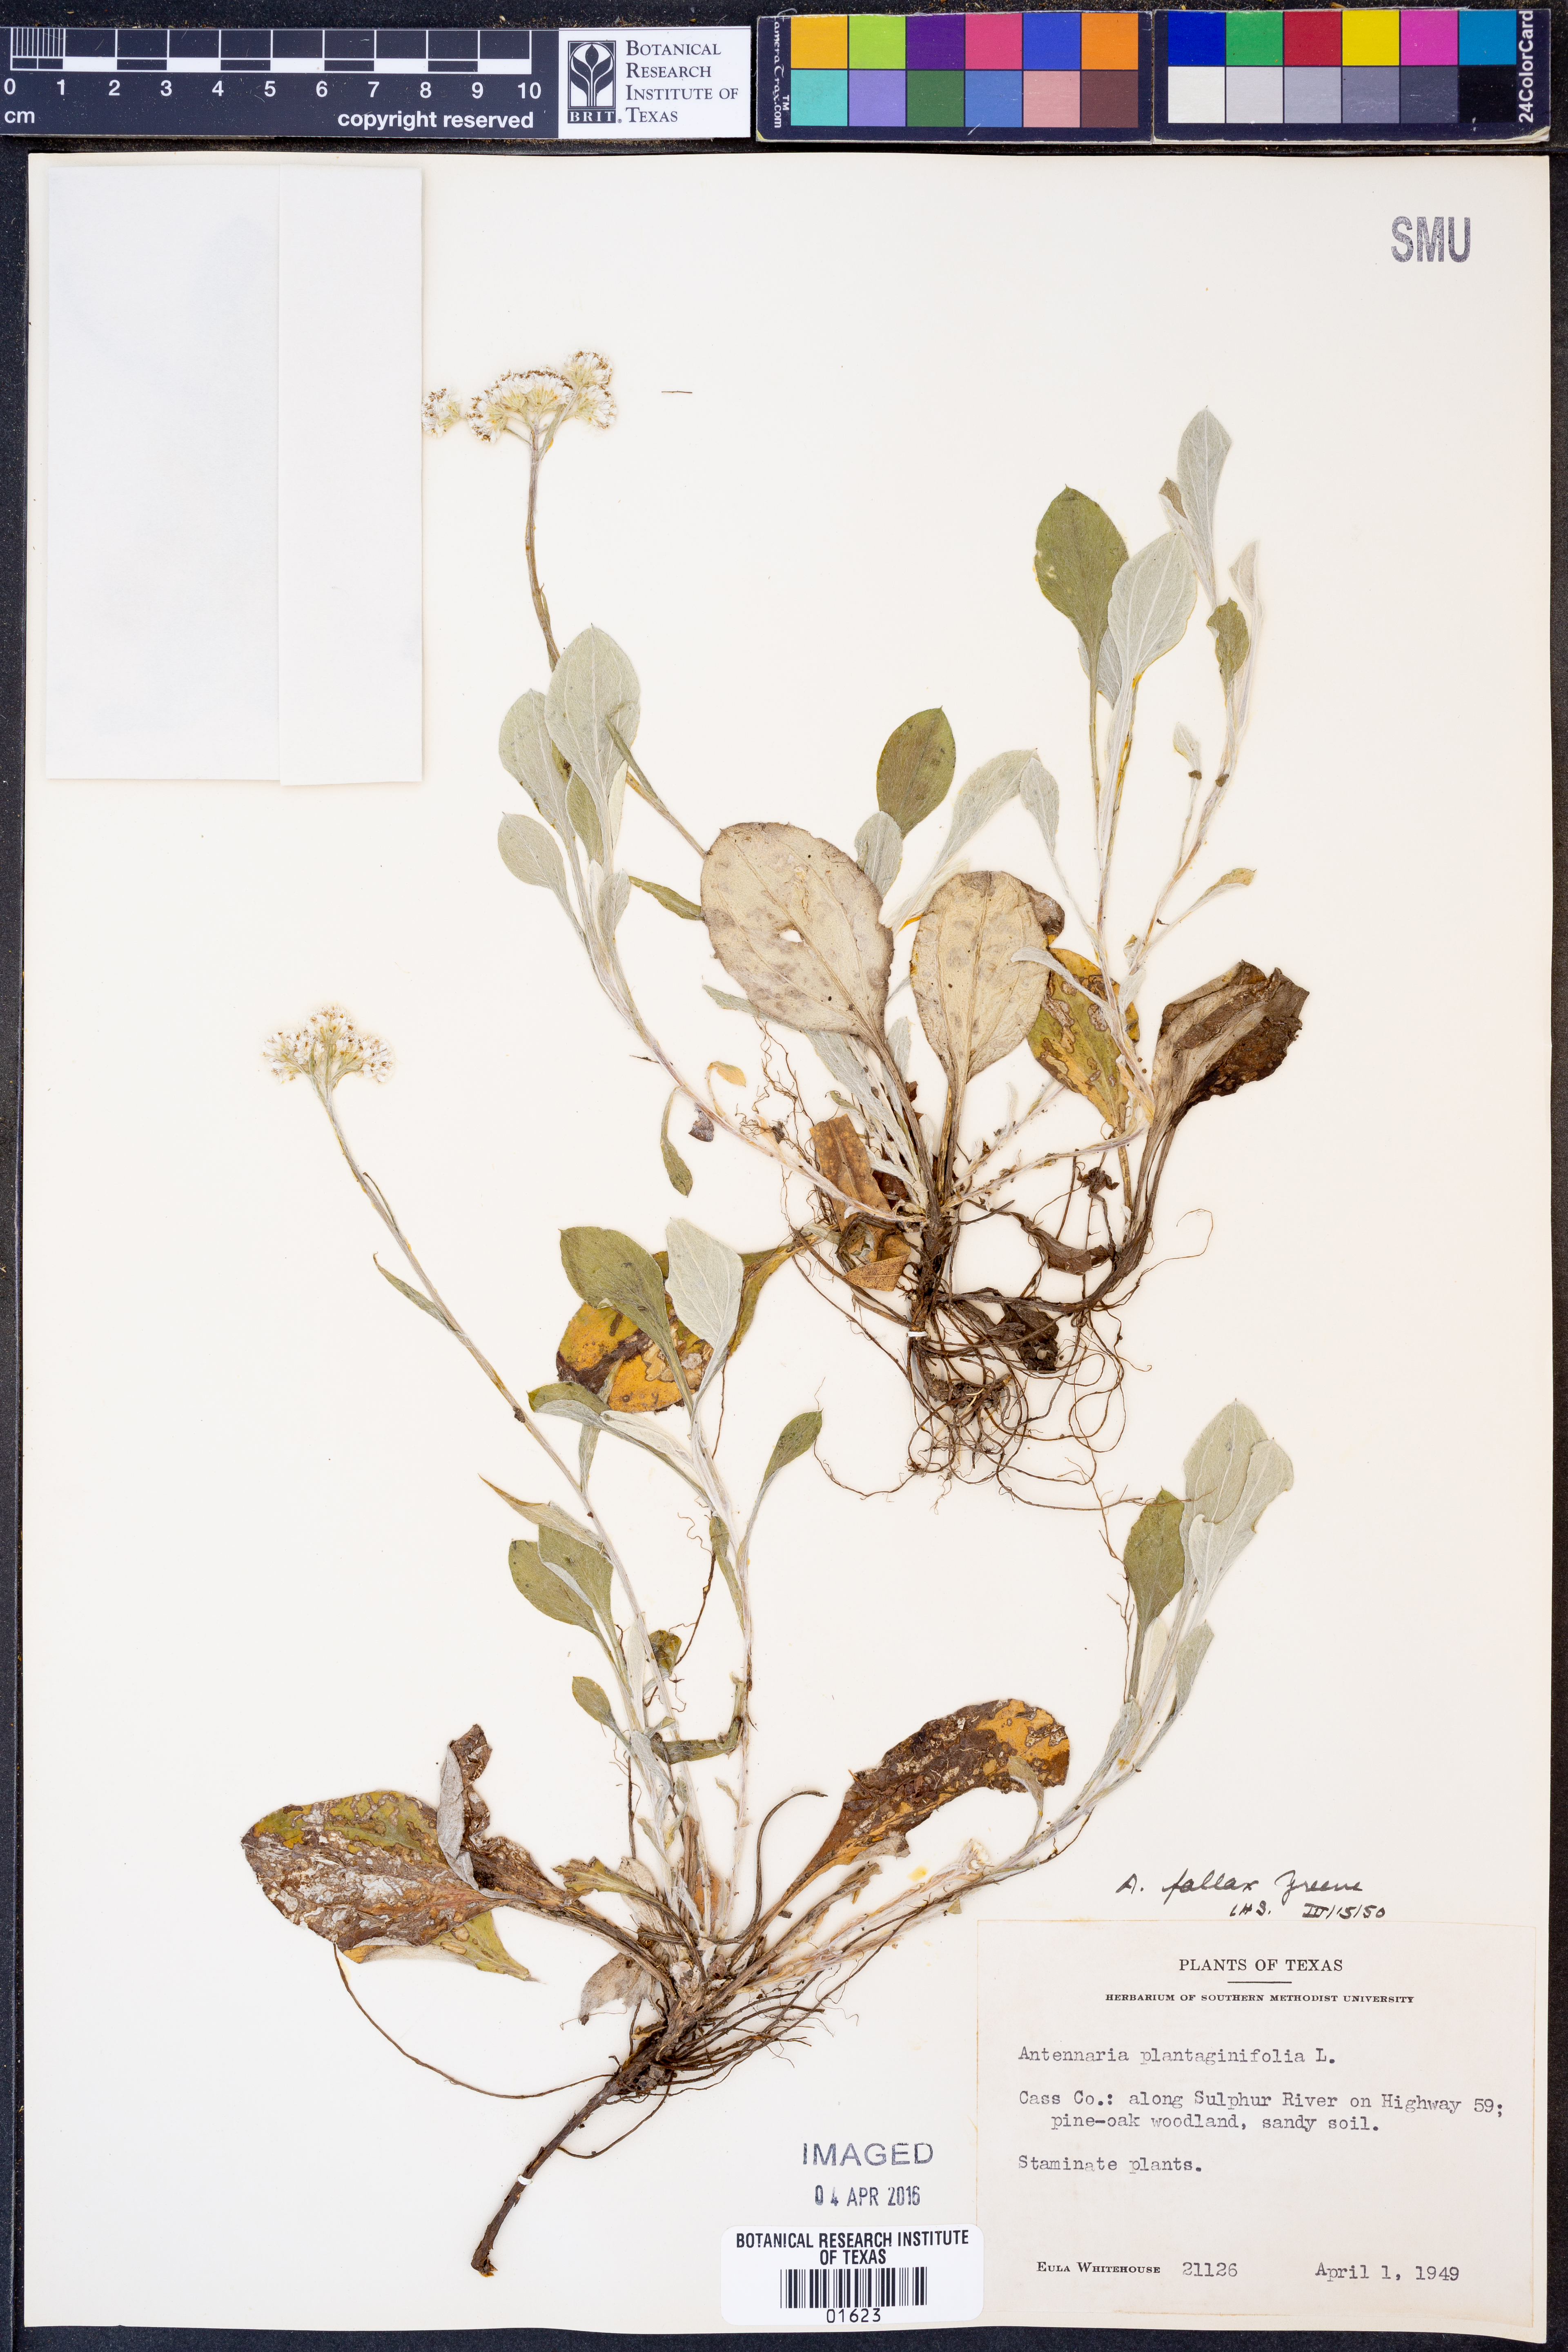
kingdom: Plantae
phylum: Tracheophyta
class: Magnoliopsida
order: Asterales
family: Asteraceae
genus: Antennaria
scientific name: Antennaria parlinii
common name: Parlin's pussytoes
